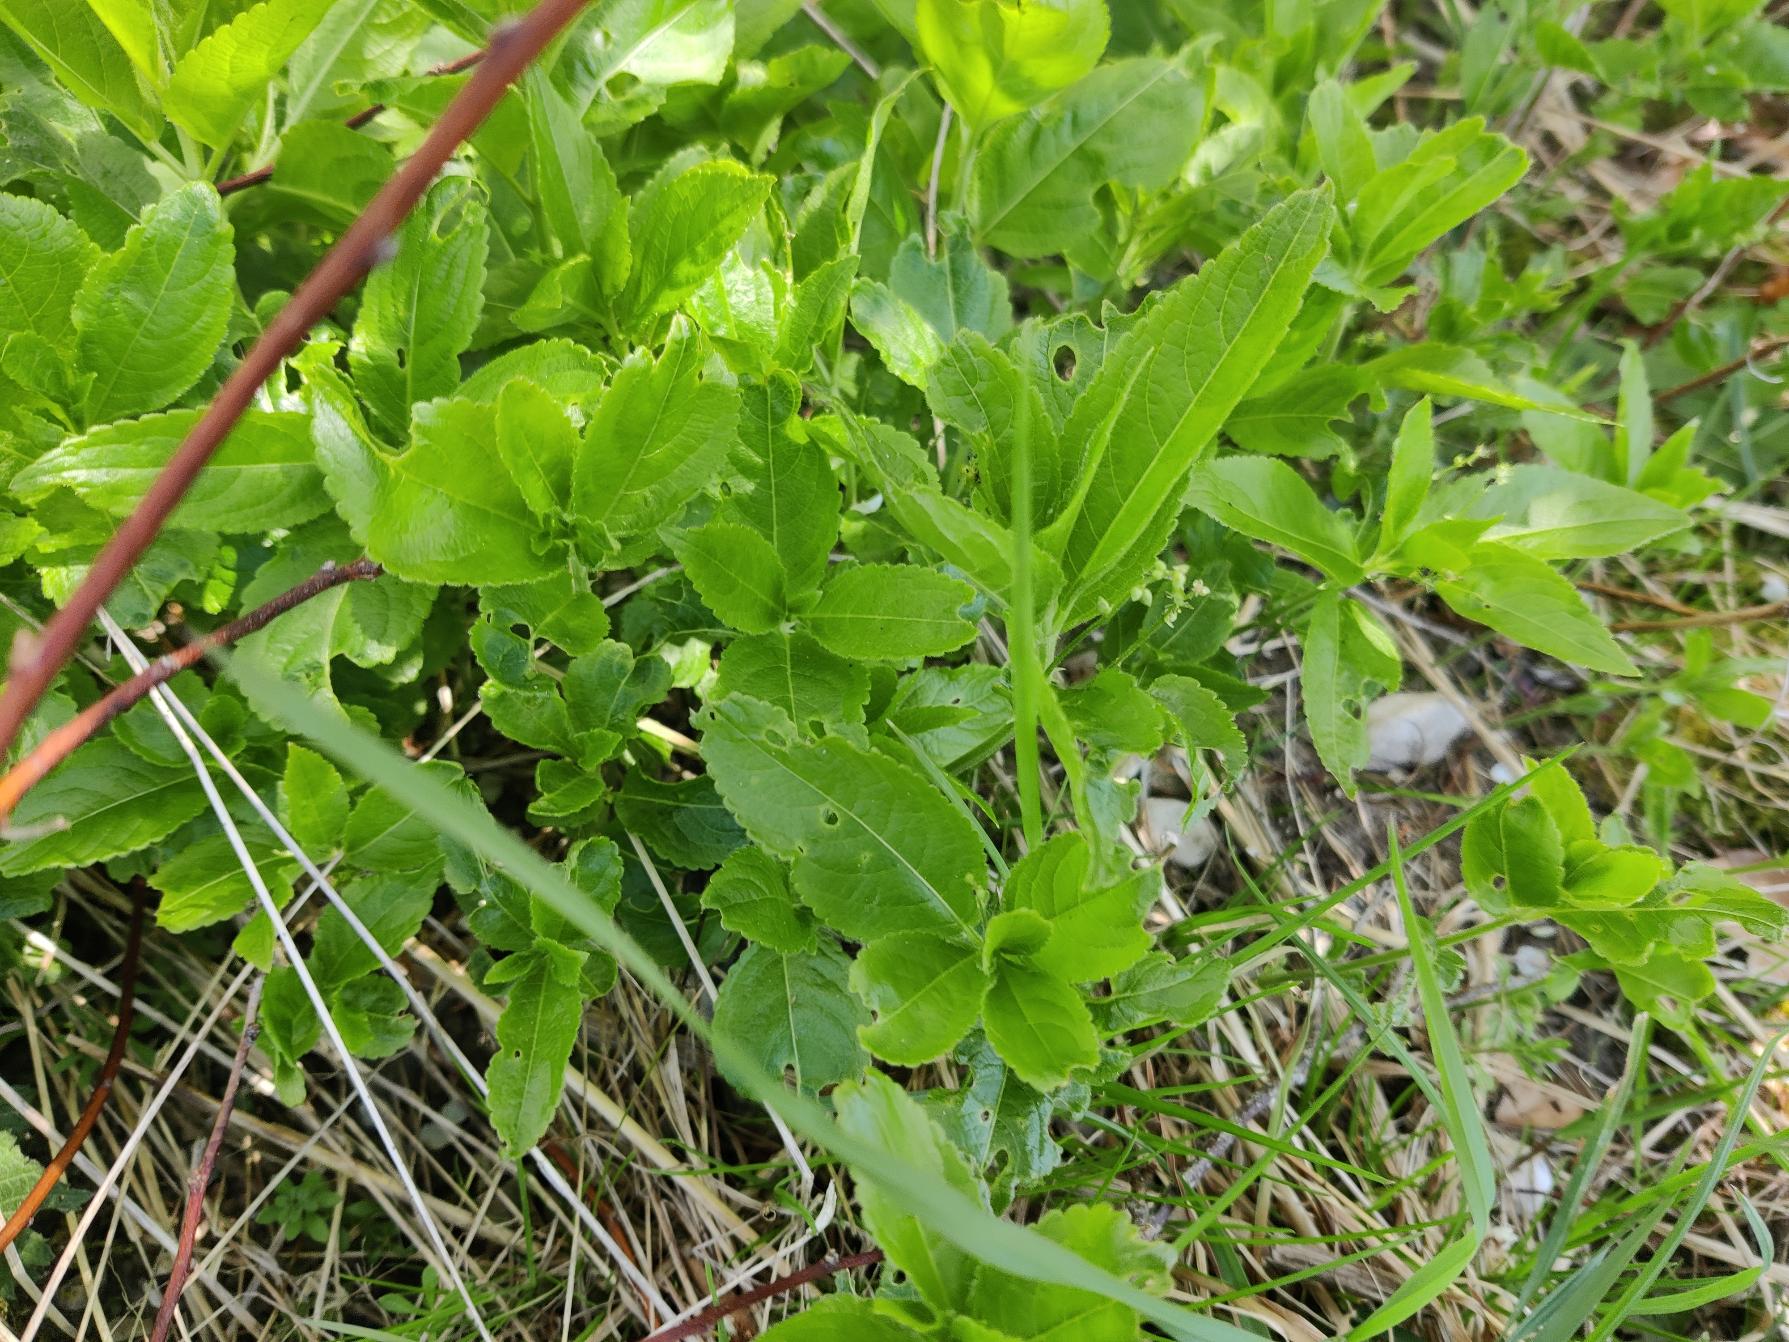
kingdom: Plantae
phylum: Tracheophyta
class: Magnoliopsida
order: Malpighiales
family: Euphorbiaceae
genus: Mercurialis
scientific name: Mercurialis perennis
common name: Almindelig bingelurt
